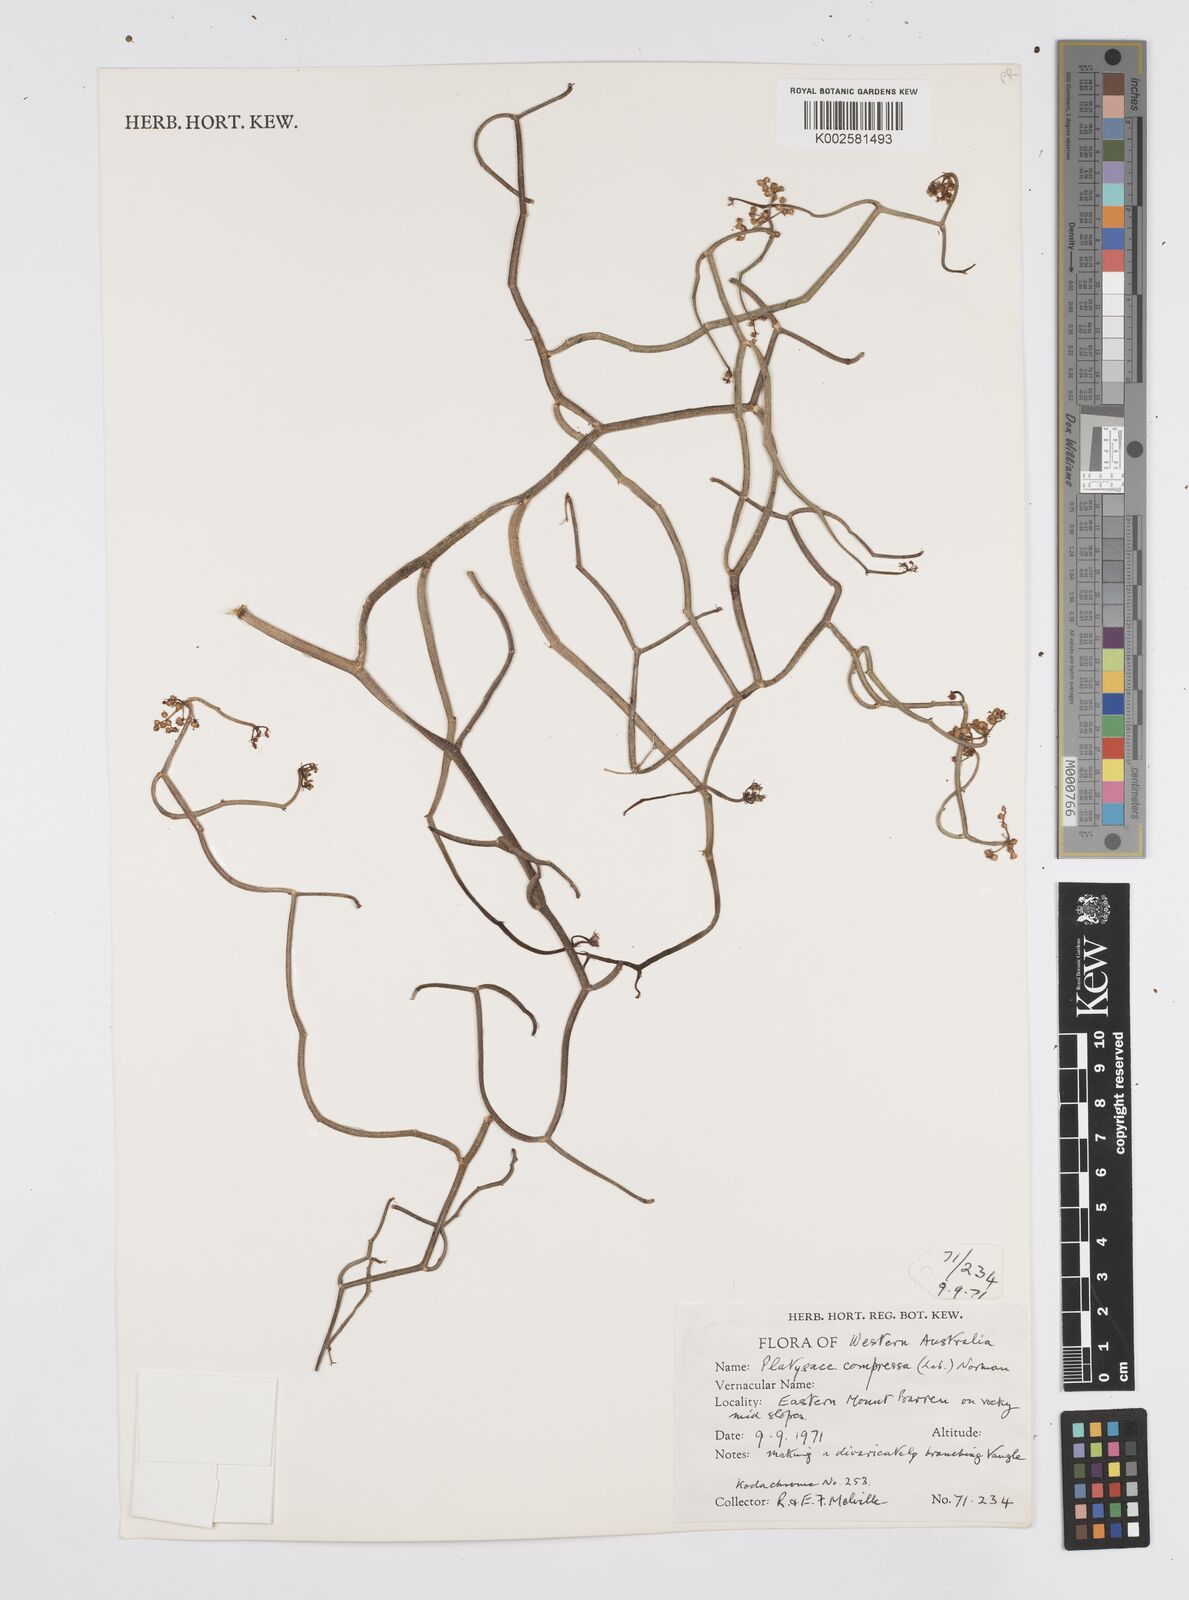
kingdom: Plantae
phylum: Tracheophyta
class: Magnoliopsida
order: Apiales
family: Apiaceae
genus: Centella
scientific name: Centella
